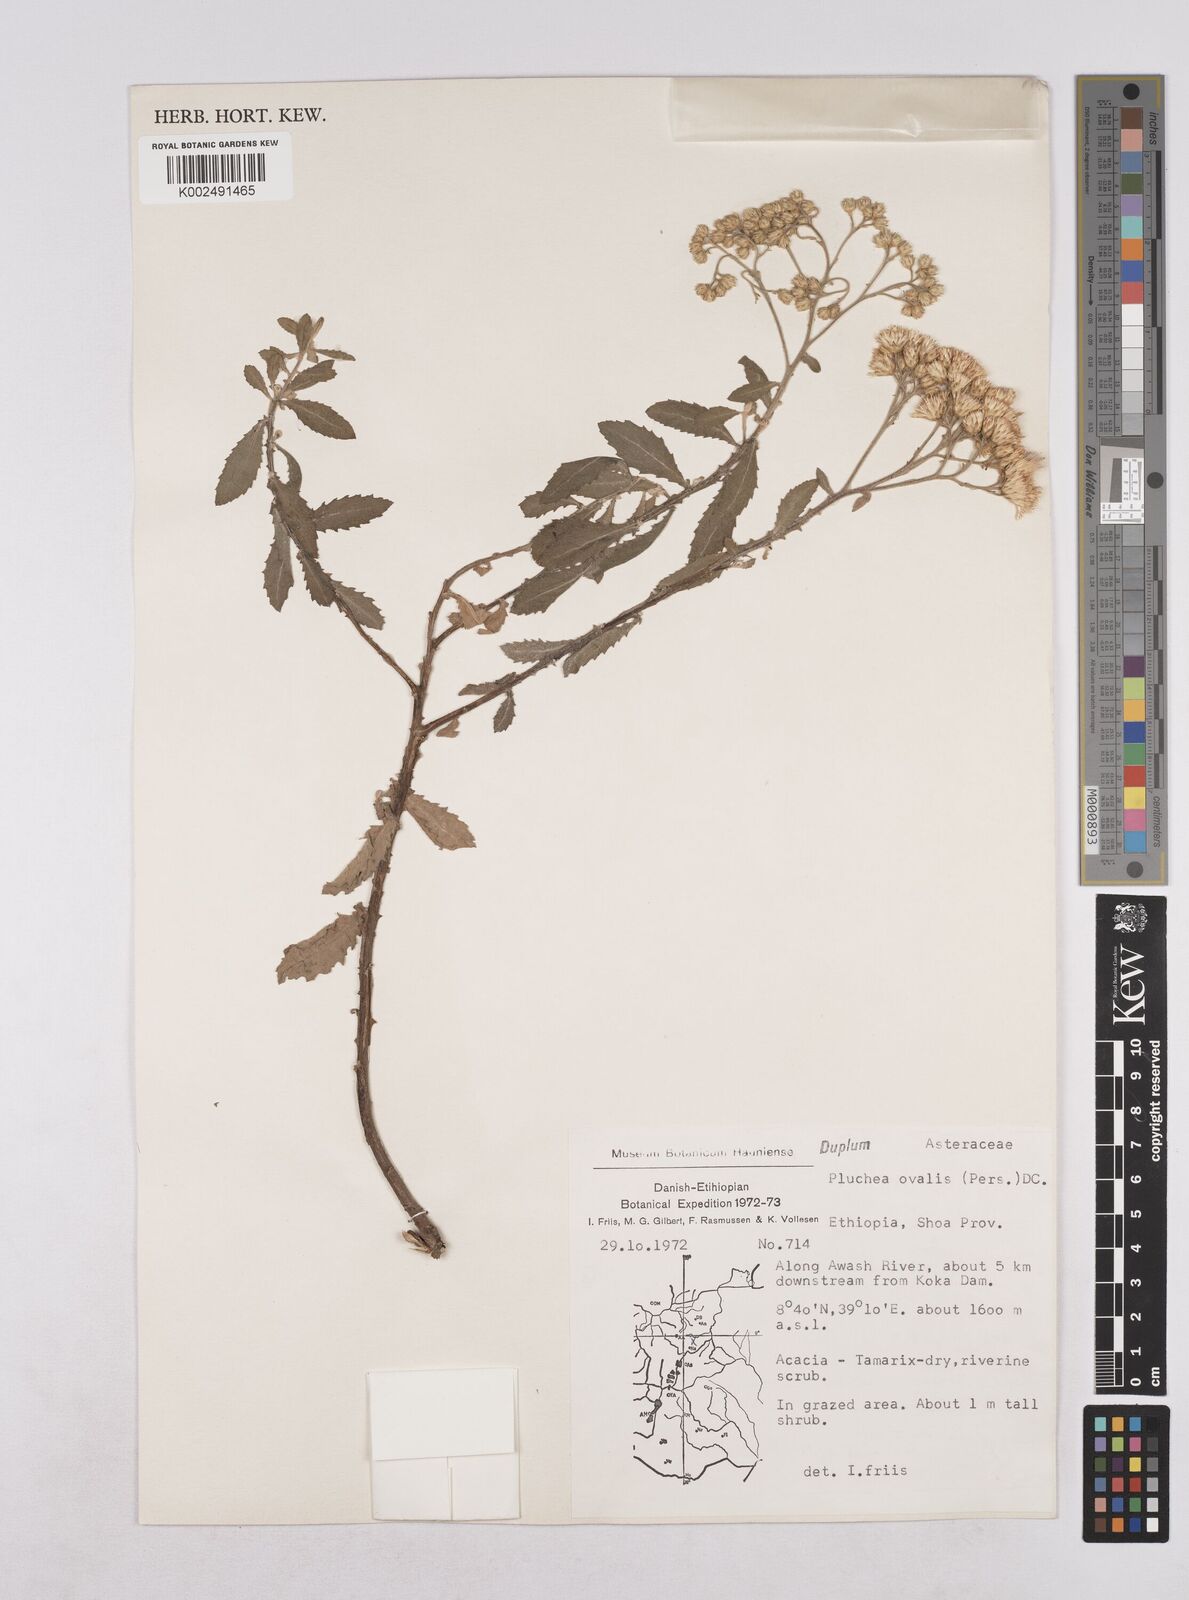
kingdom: Plantae
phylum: Tracheophyta
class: Magnoliopsida
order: Asterales
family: Asteraceae
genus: Pluchea
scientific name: Pluchea ovalis
